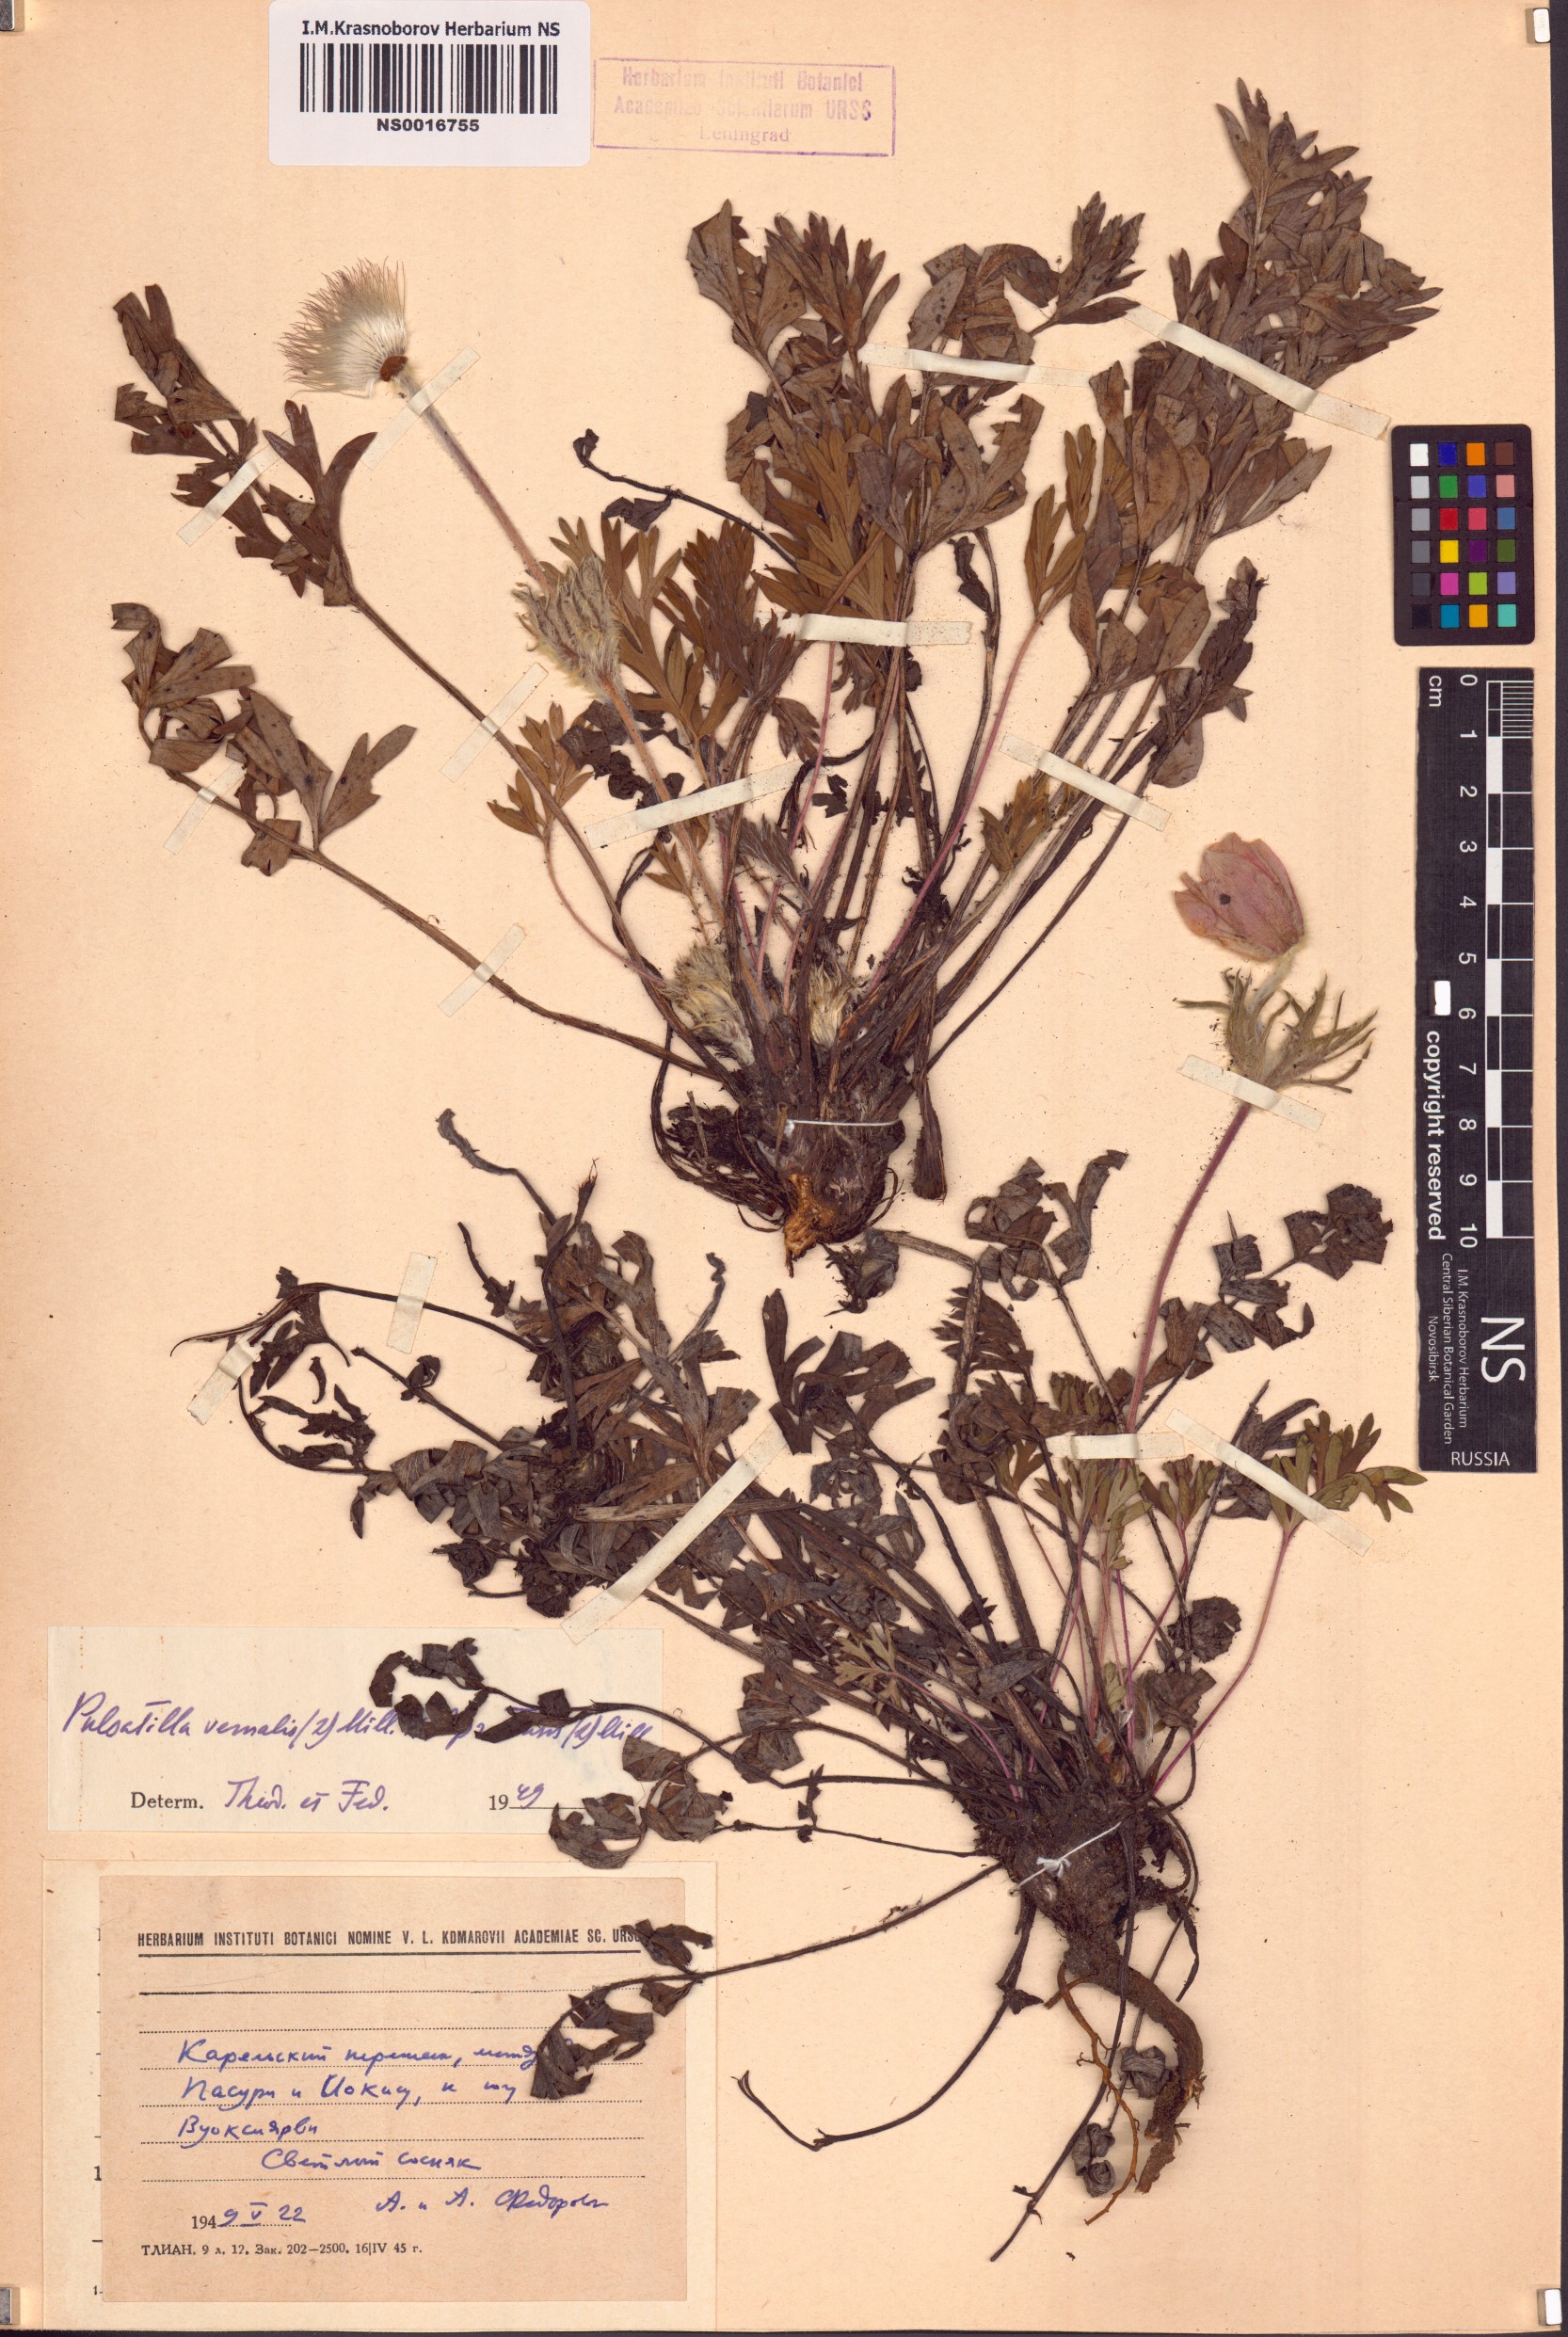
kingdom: Plantae
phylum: Tracheophyta
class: Magnoliopsida
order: Ranunculales
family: Ranunculaceae
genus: Pulsatilla
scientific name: Pulsatilla vernalis
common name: Spring pasque flower
